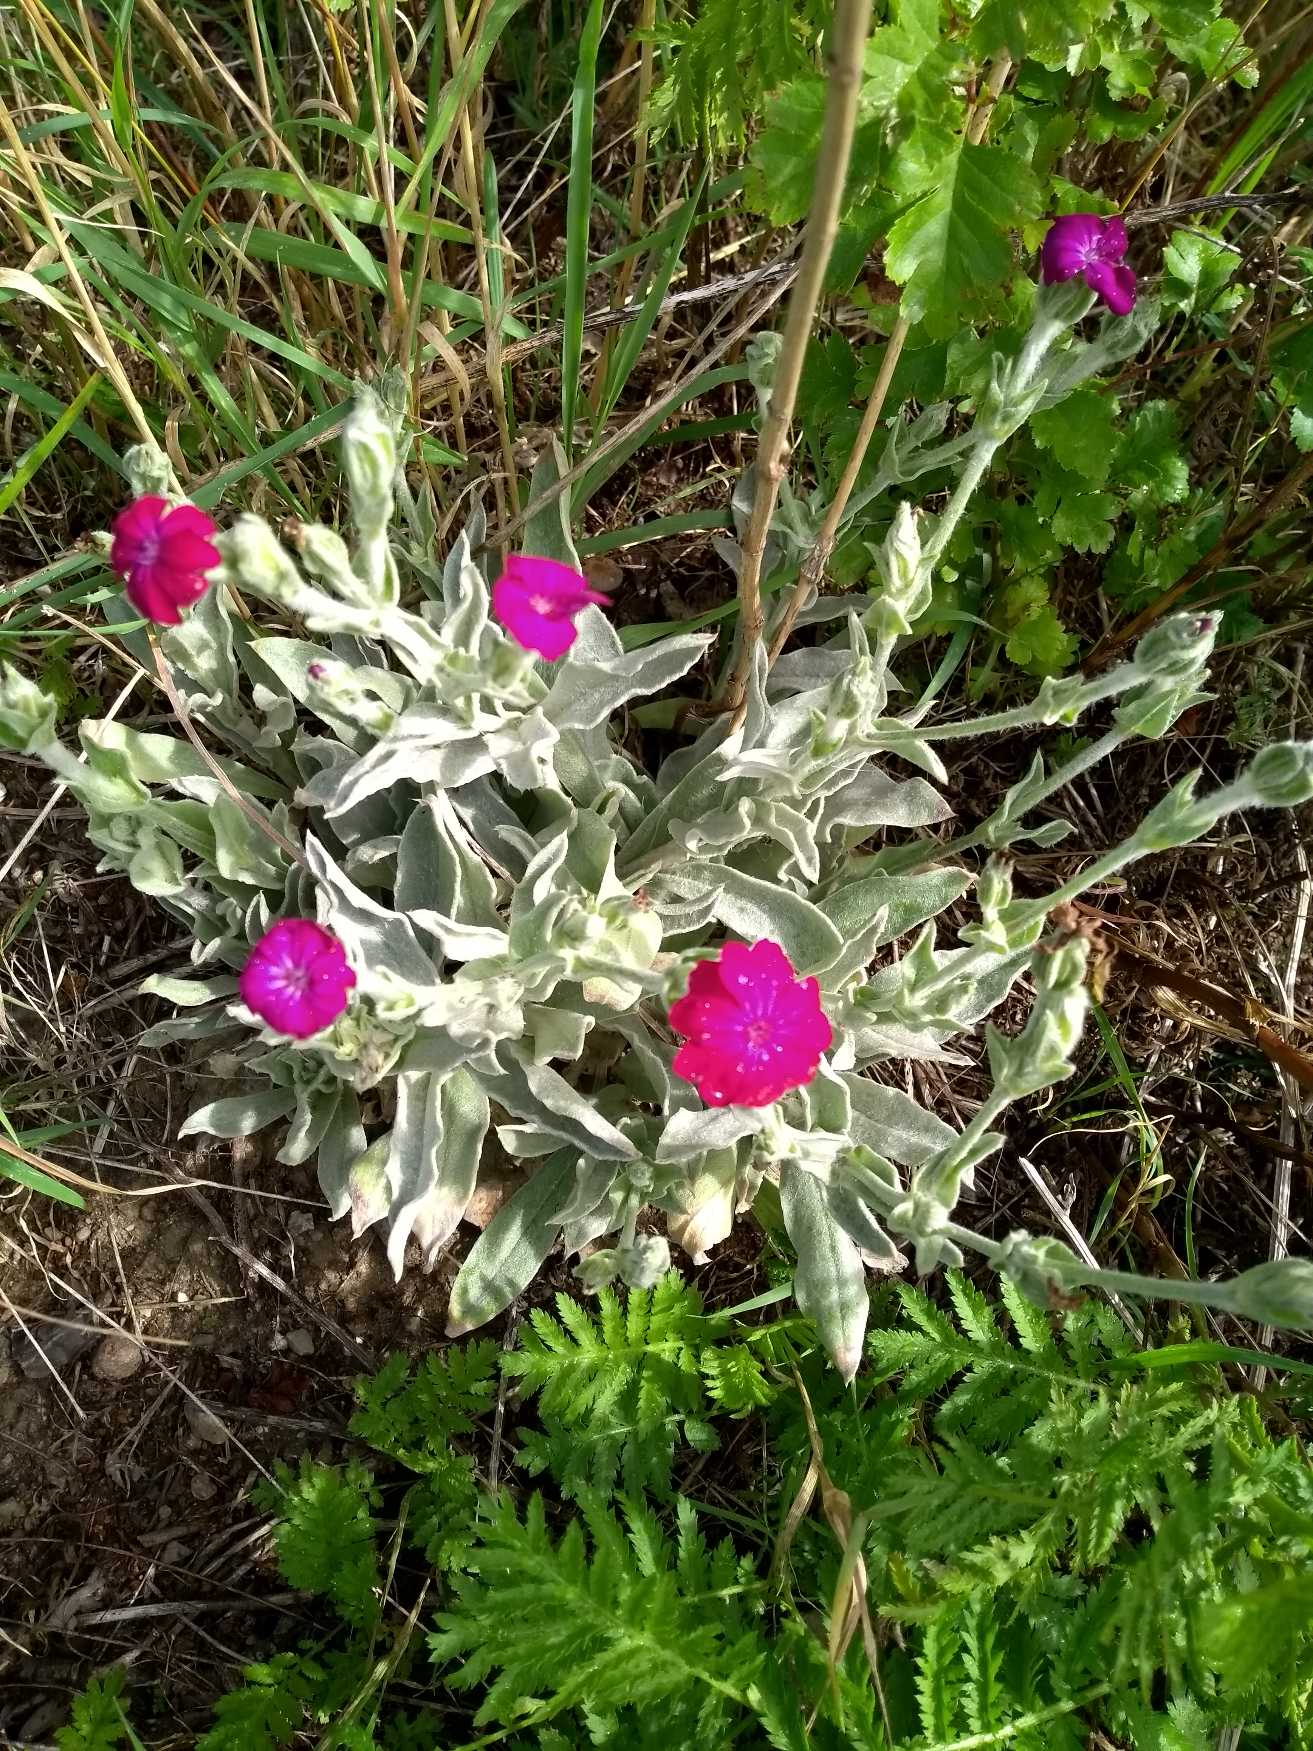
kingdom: Plantae
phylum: Tracheophyta
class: Magnoliopsida
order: Caryophyllales
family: Caryophyllaceae
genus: Silene
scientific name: Silene coronaria
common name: Fiksernellike
